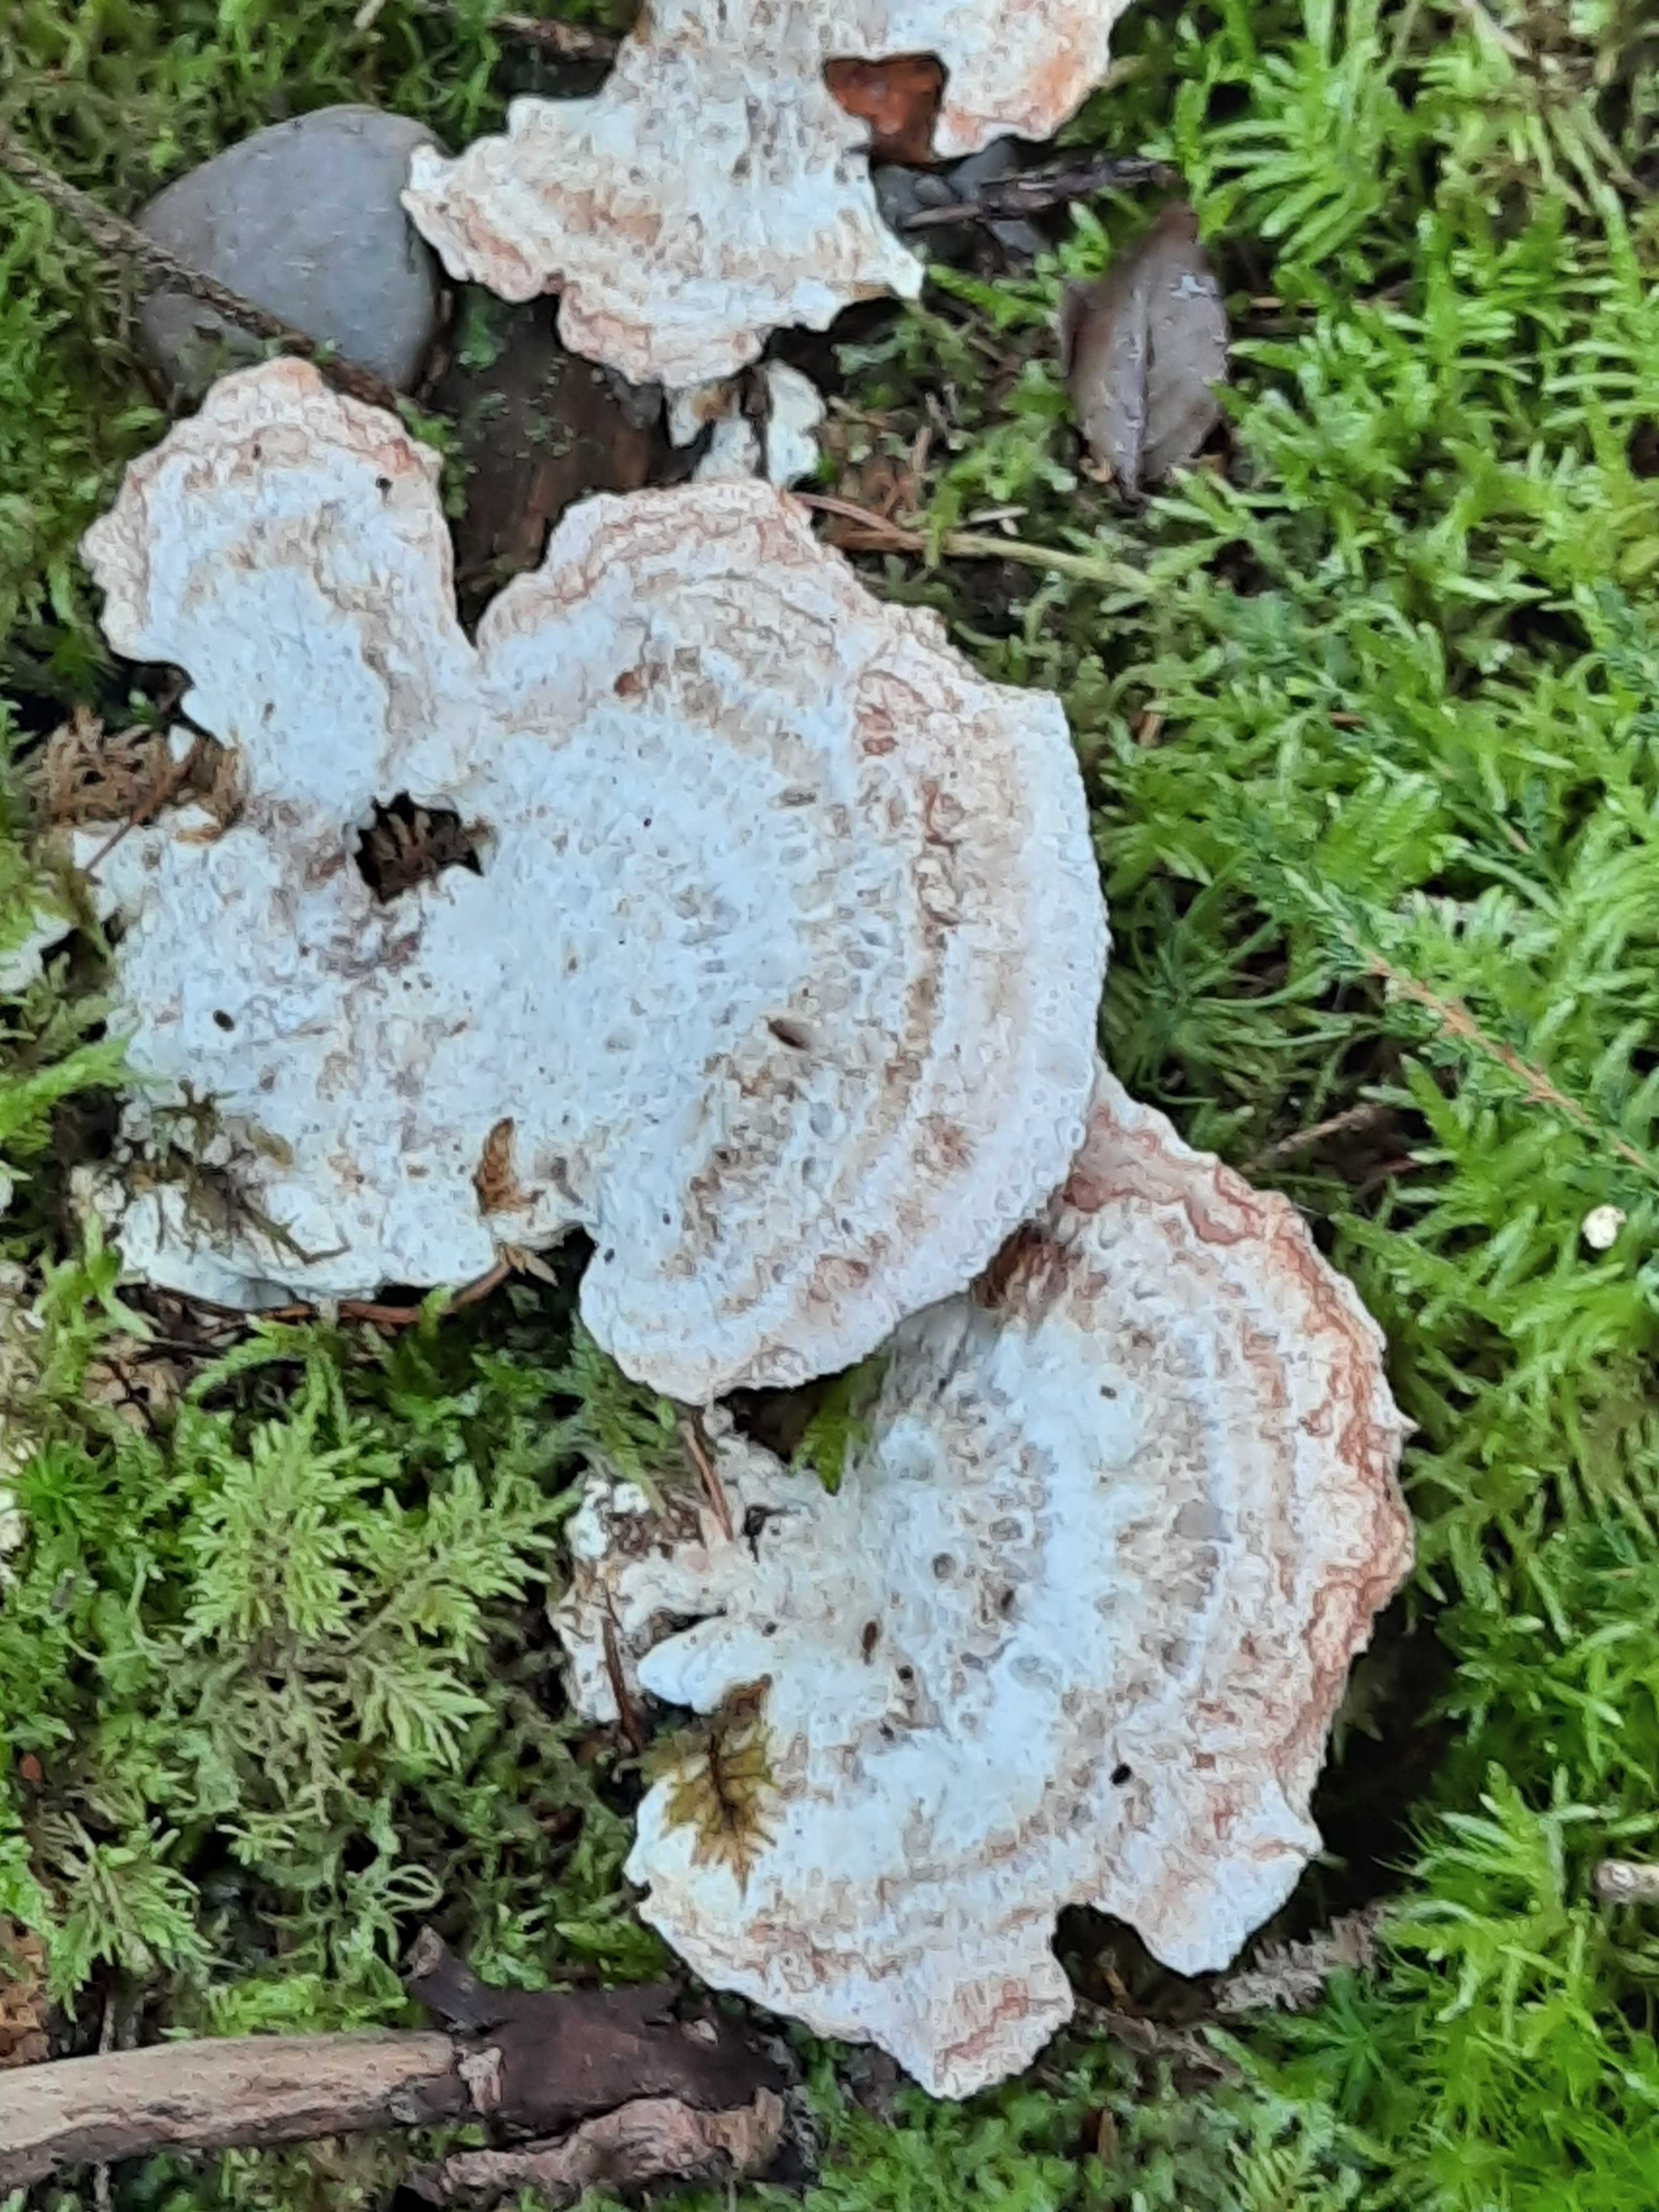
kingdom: Fungi
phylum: Basidiomycota
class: Agaricomycetes
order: Polyporales
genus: Calcipostia
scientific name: Calcipostia guttulata
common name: dråbe-kødporesvamp
